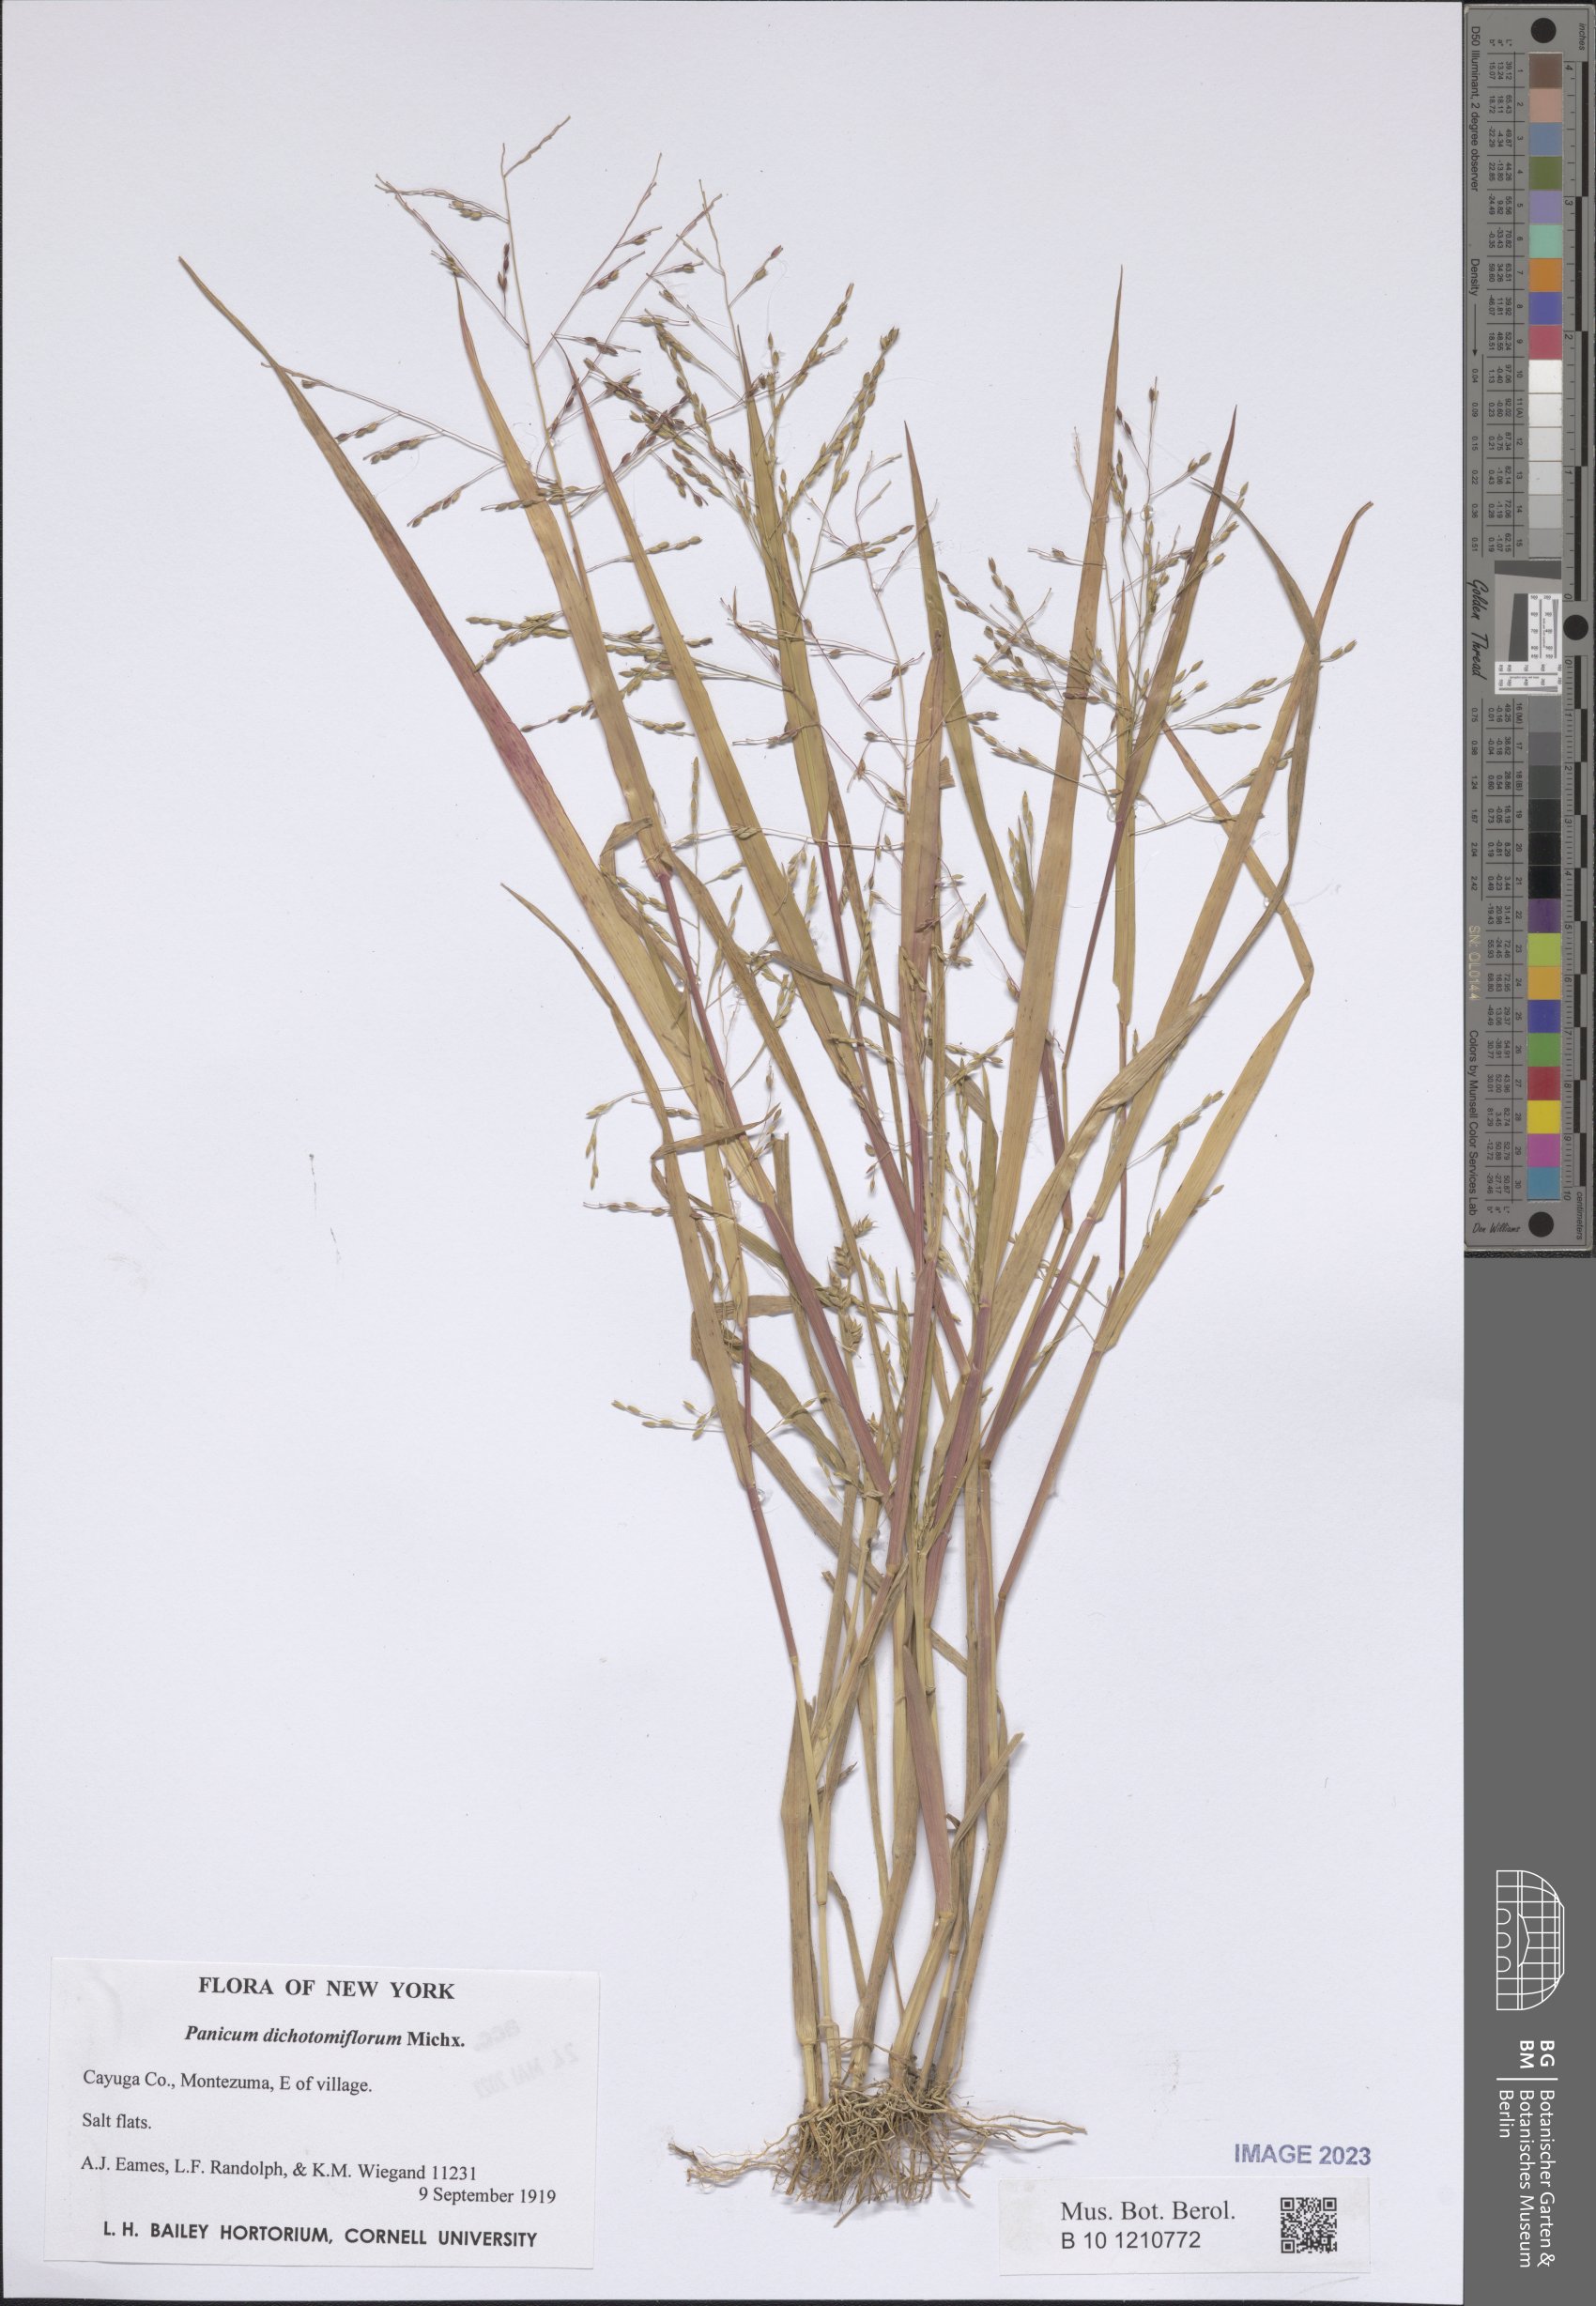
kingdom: Plantae
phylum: Tracheophyta
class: Liliopsida
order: Poales
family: Poaceae
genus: Panicum
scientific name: Panicum dichotomiflorum
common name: Autumn millet
